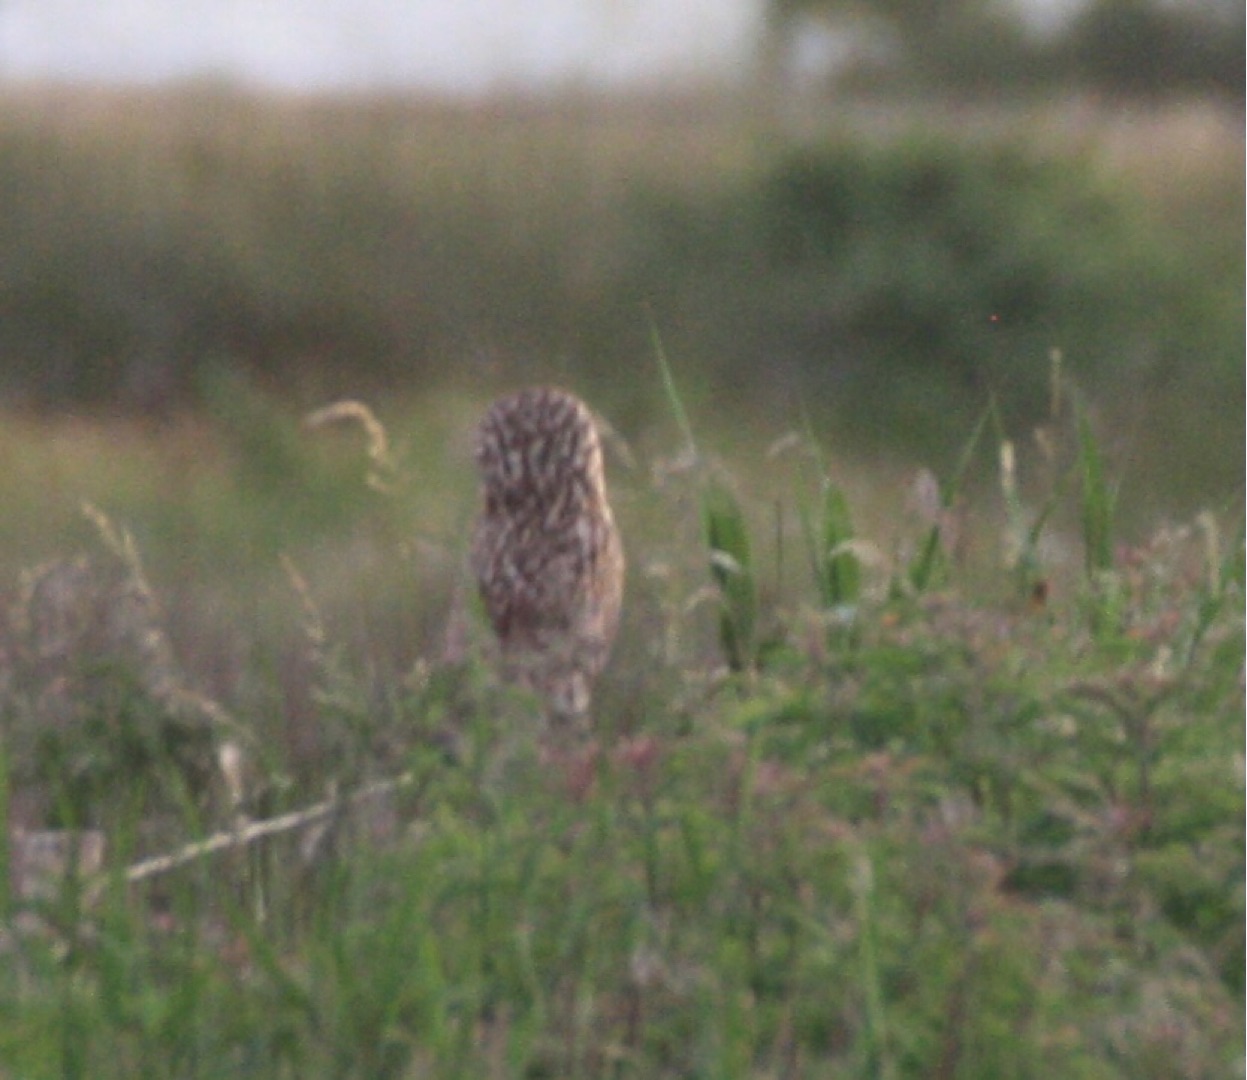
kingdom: Animalia
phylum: Chordata
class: Aves
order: Strigiformes
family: Strigidae
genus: Asio
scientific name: Asio flammeus
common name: Mosehornugle
